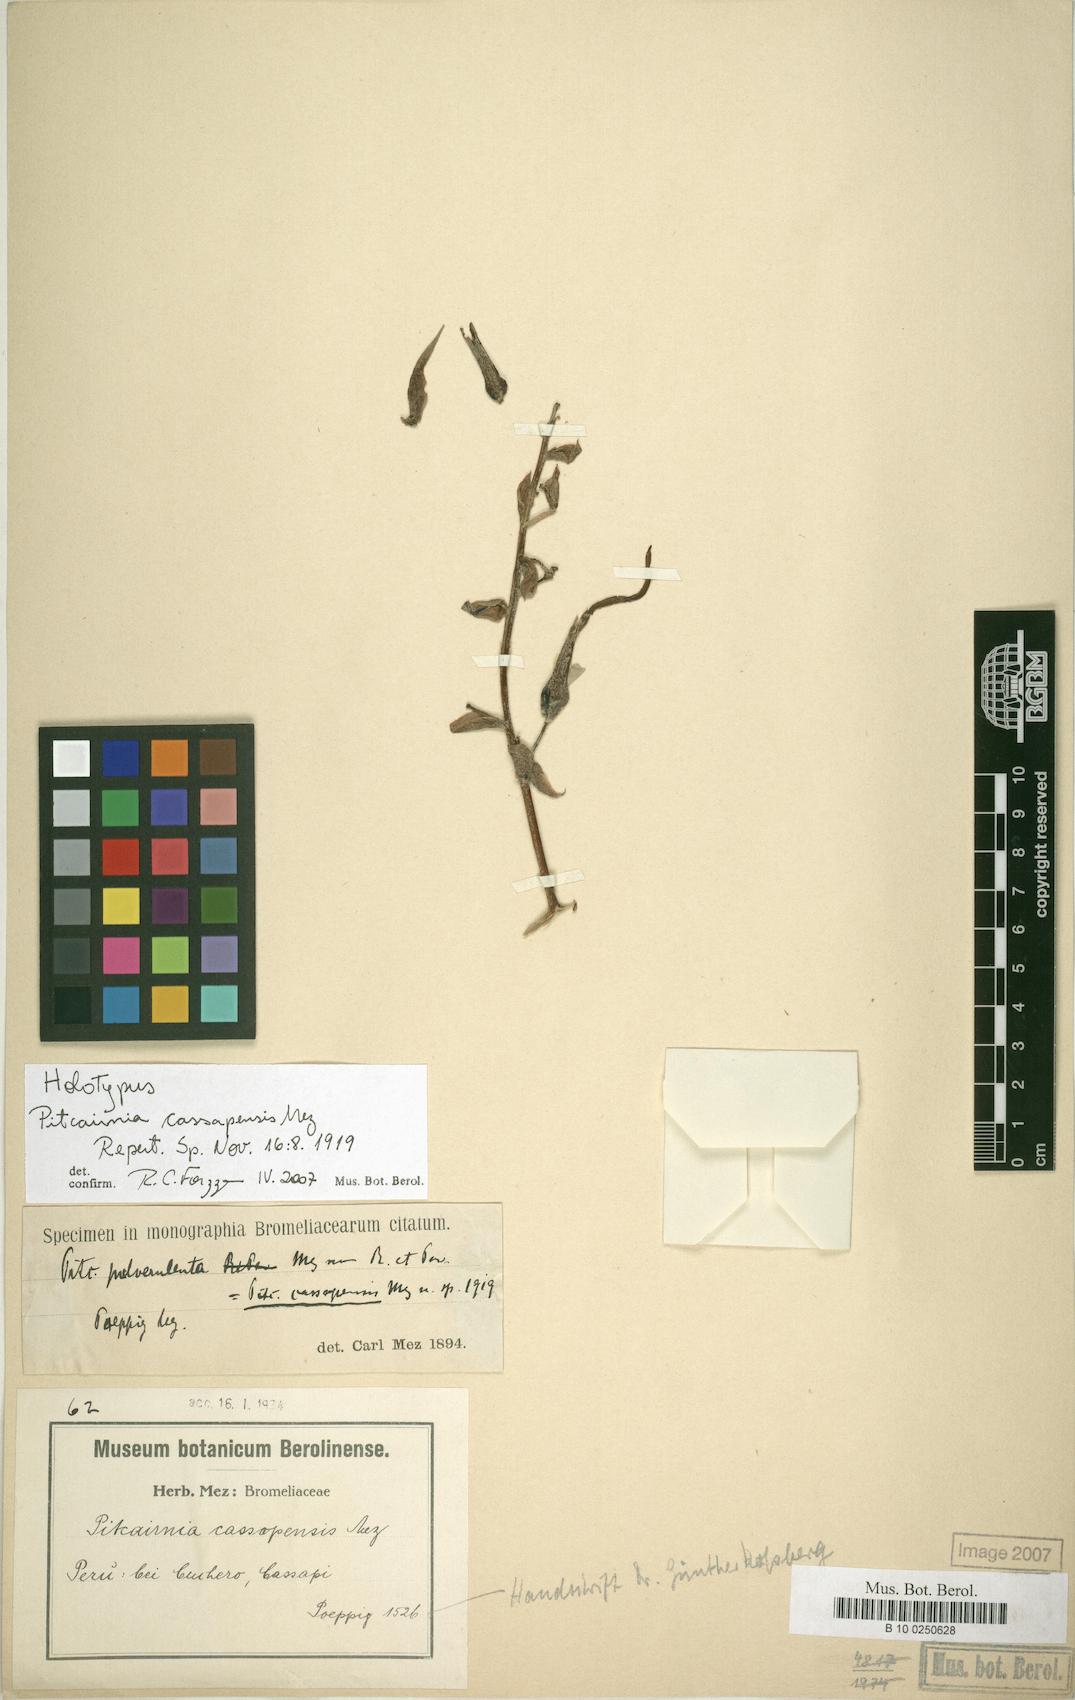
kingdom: Plantae
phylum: Tracheophyta
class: Liliopsida
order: Poales
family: Bromeliaceae
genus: Pitcairnia
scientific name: Pitcairnia cassapensis
